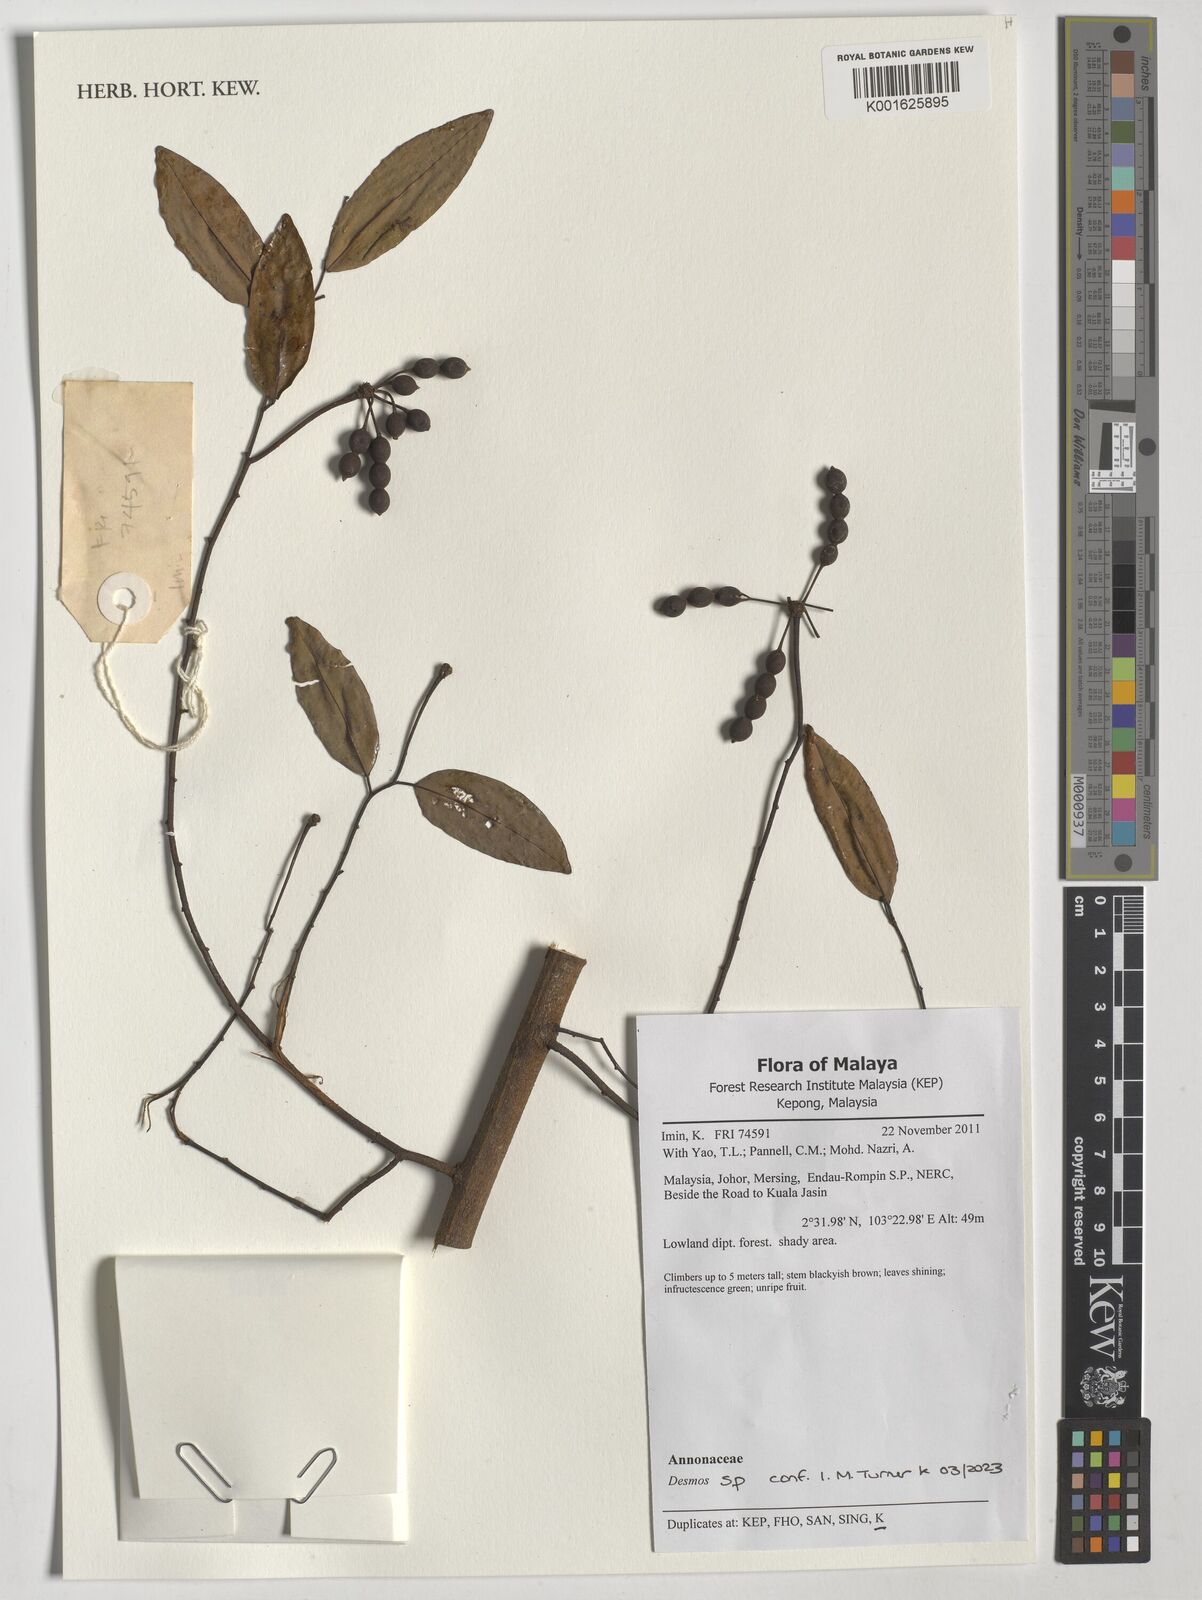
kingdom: Plantae
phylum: Tracheophyta
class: Magnoliopsida
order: Magnoliales
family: Annonaceae
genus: Desmos
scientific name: Desmos
